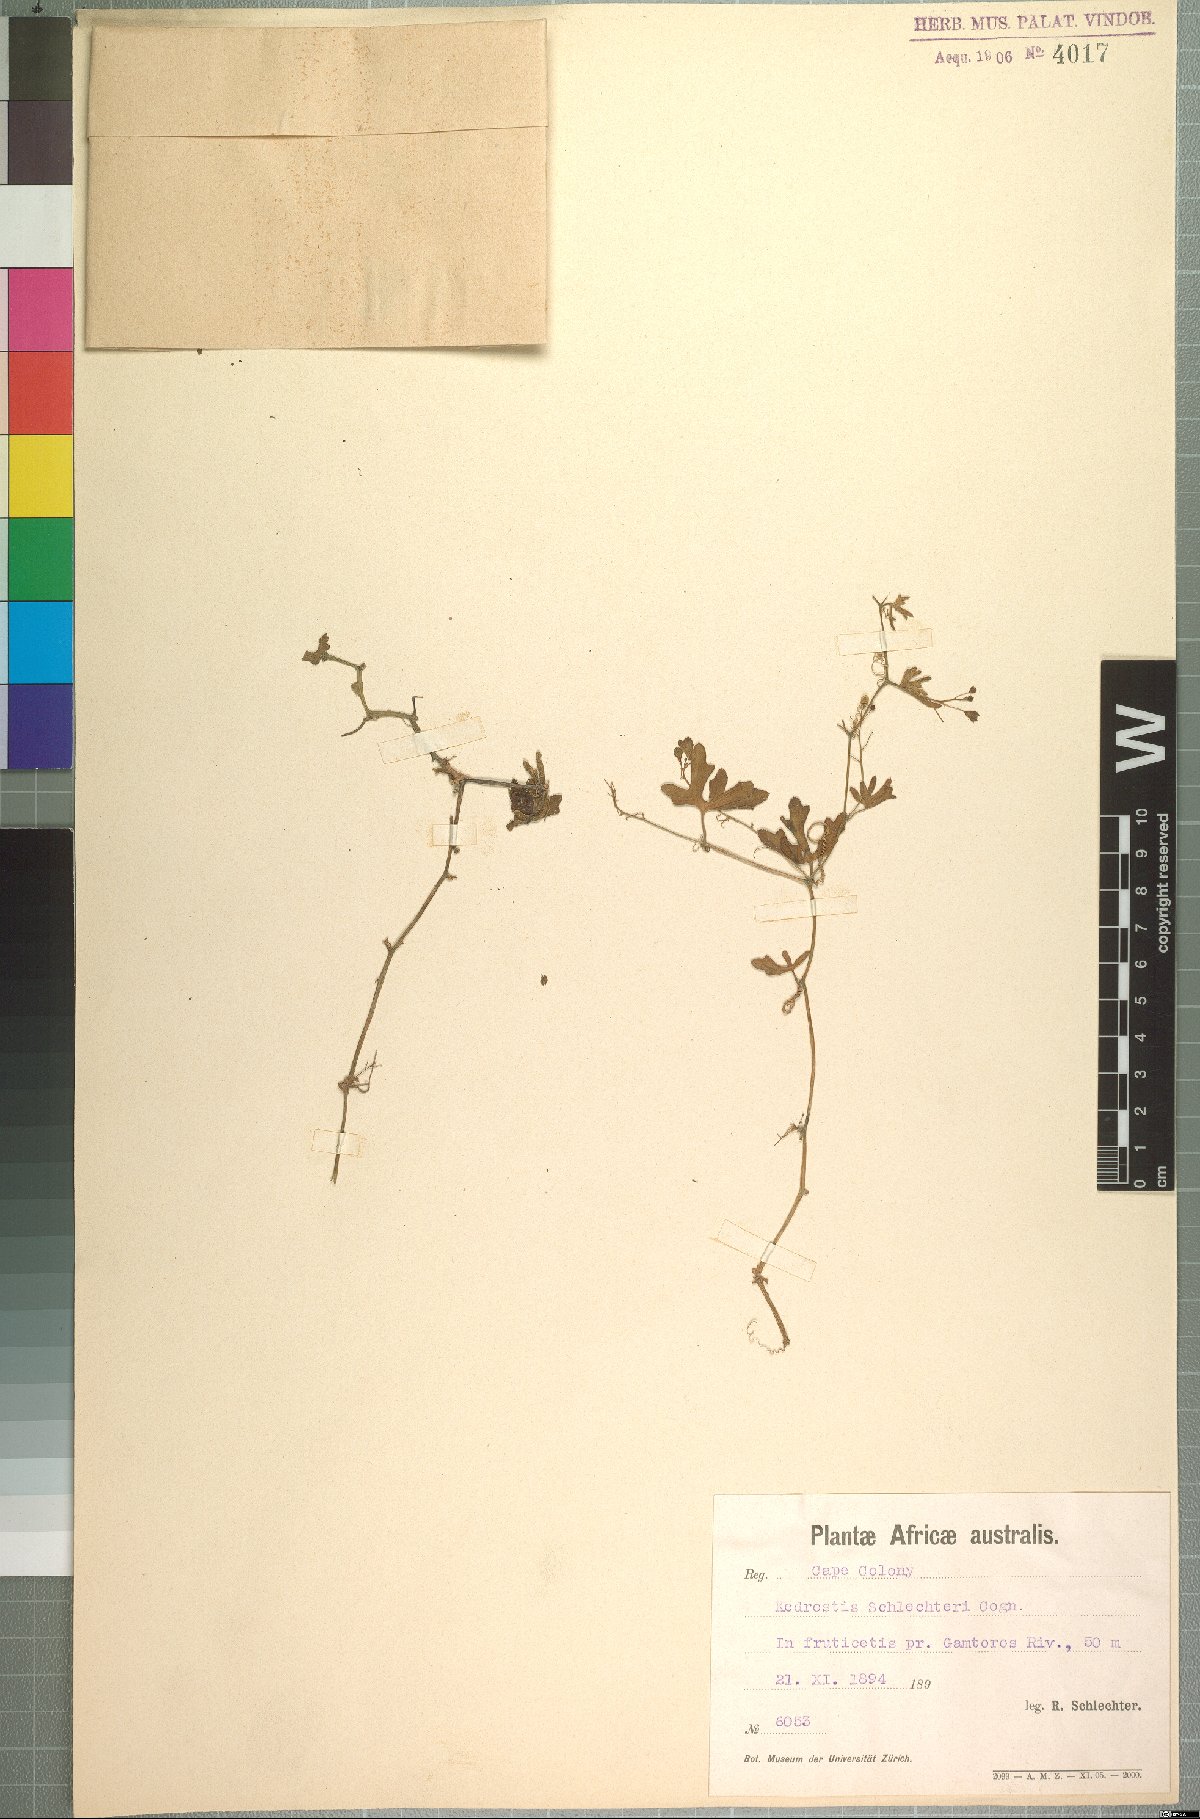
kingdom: Plantae
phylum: Tracheophyta
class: Magnoliopsida
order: Cucurbitales
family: Cucurbitaceae
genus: Kedrostis
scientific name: Kedrostis nana
